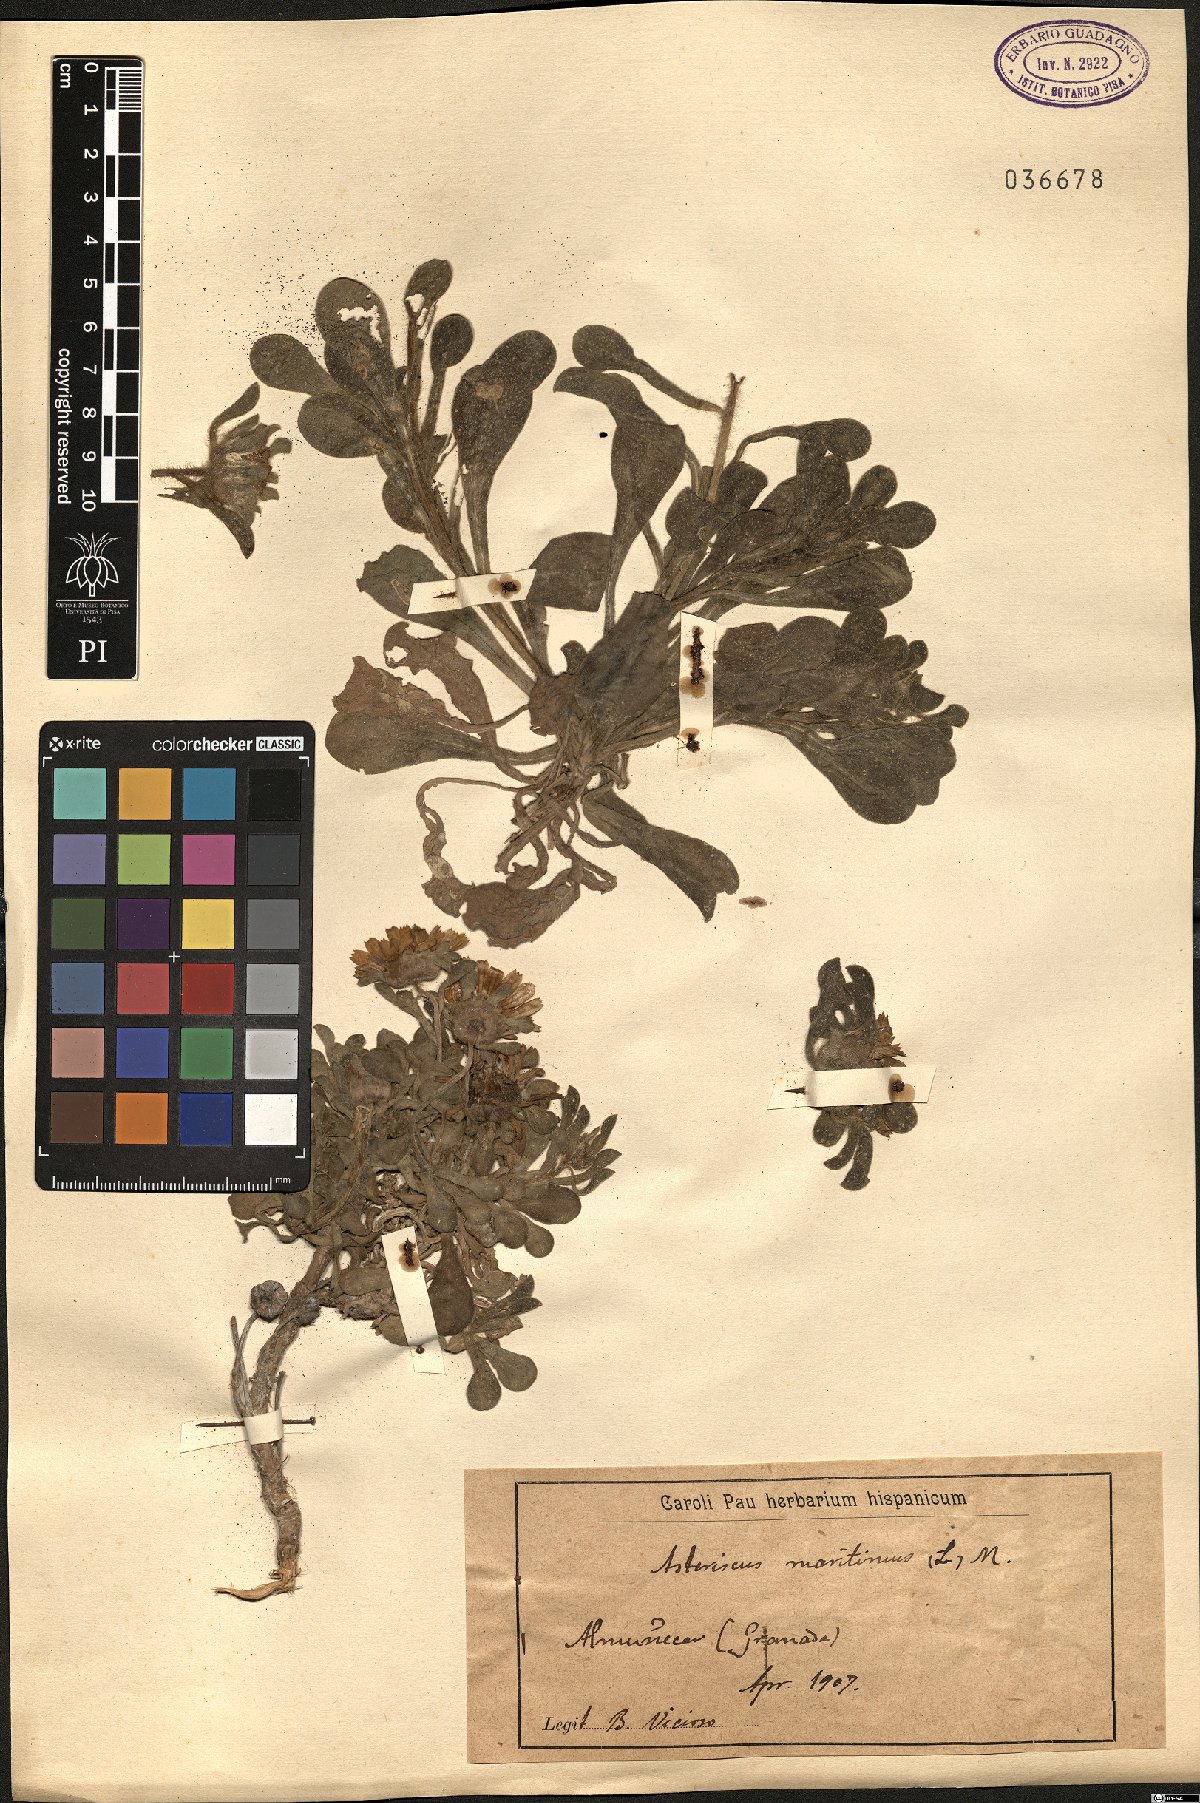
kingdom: Plantae
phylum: Tracheophyta
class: Magnoliopsida
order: Asterales
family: Asteraceae
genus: Pallenis
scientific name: Pallenis maritima
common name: Golden coin daisy
